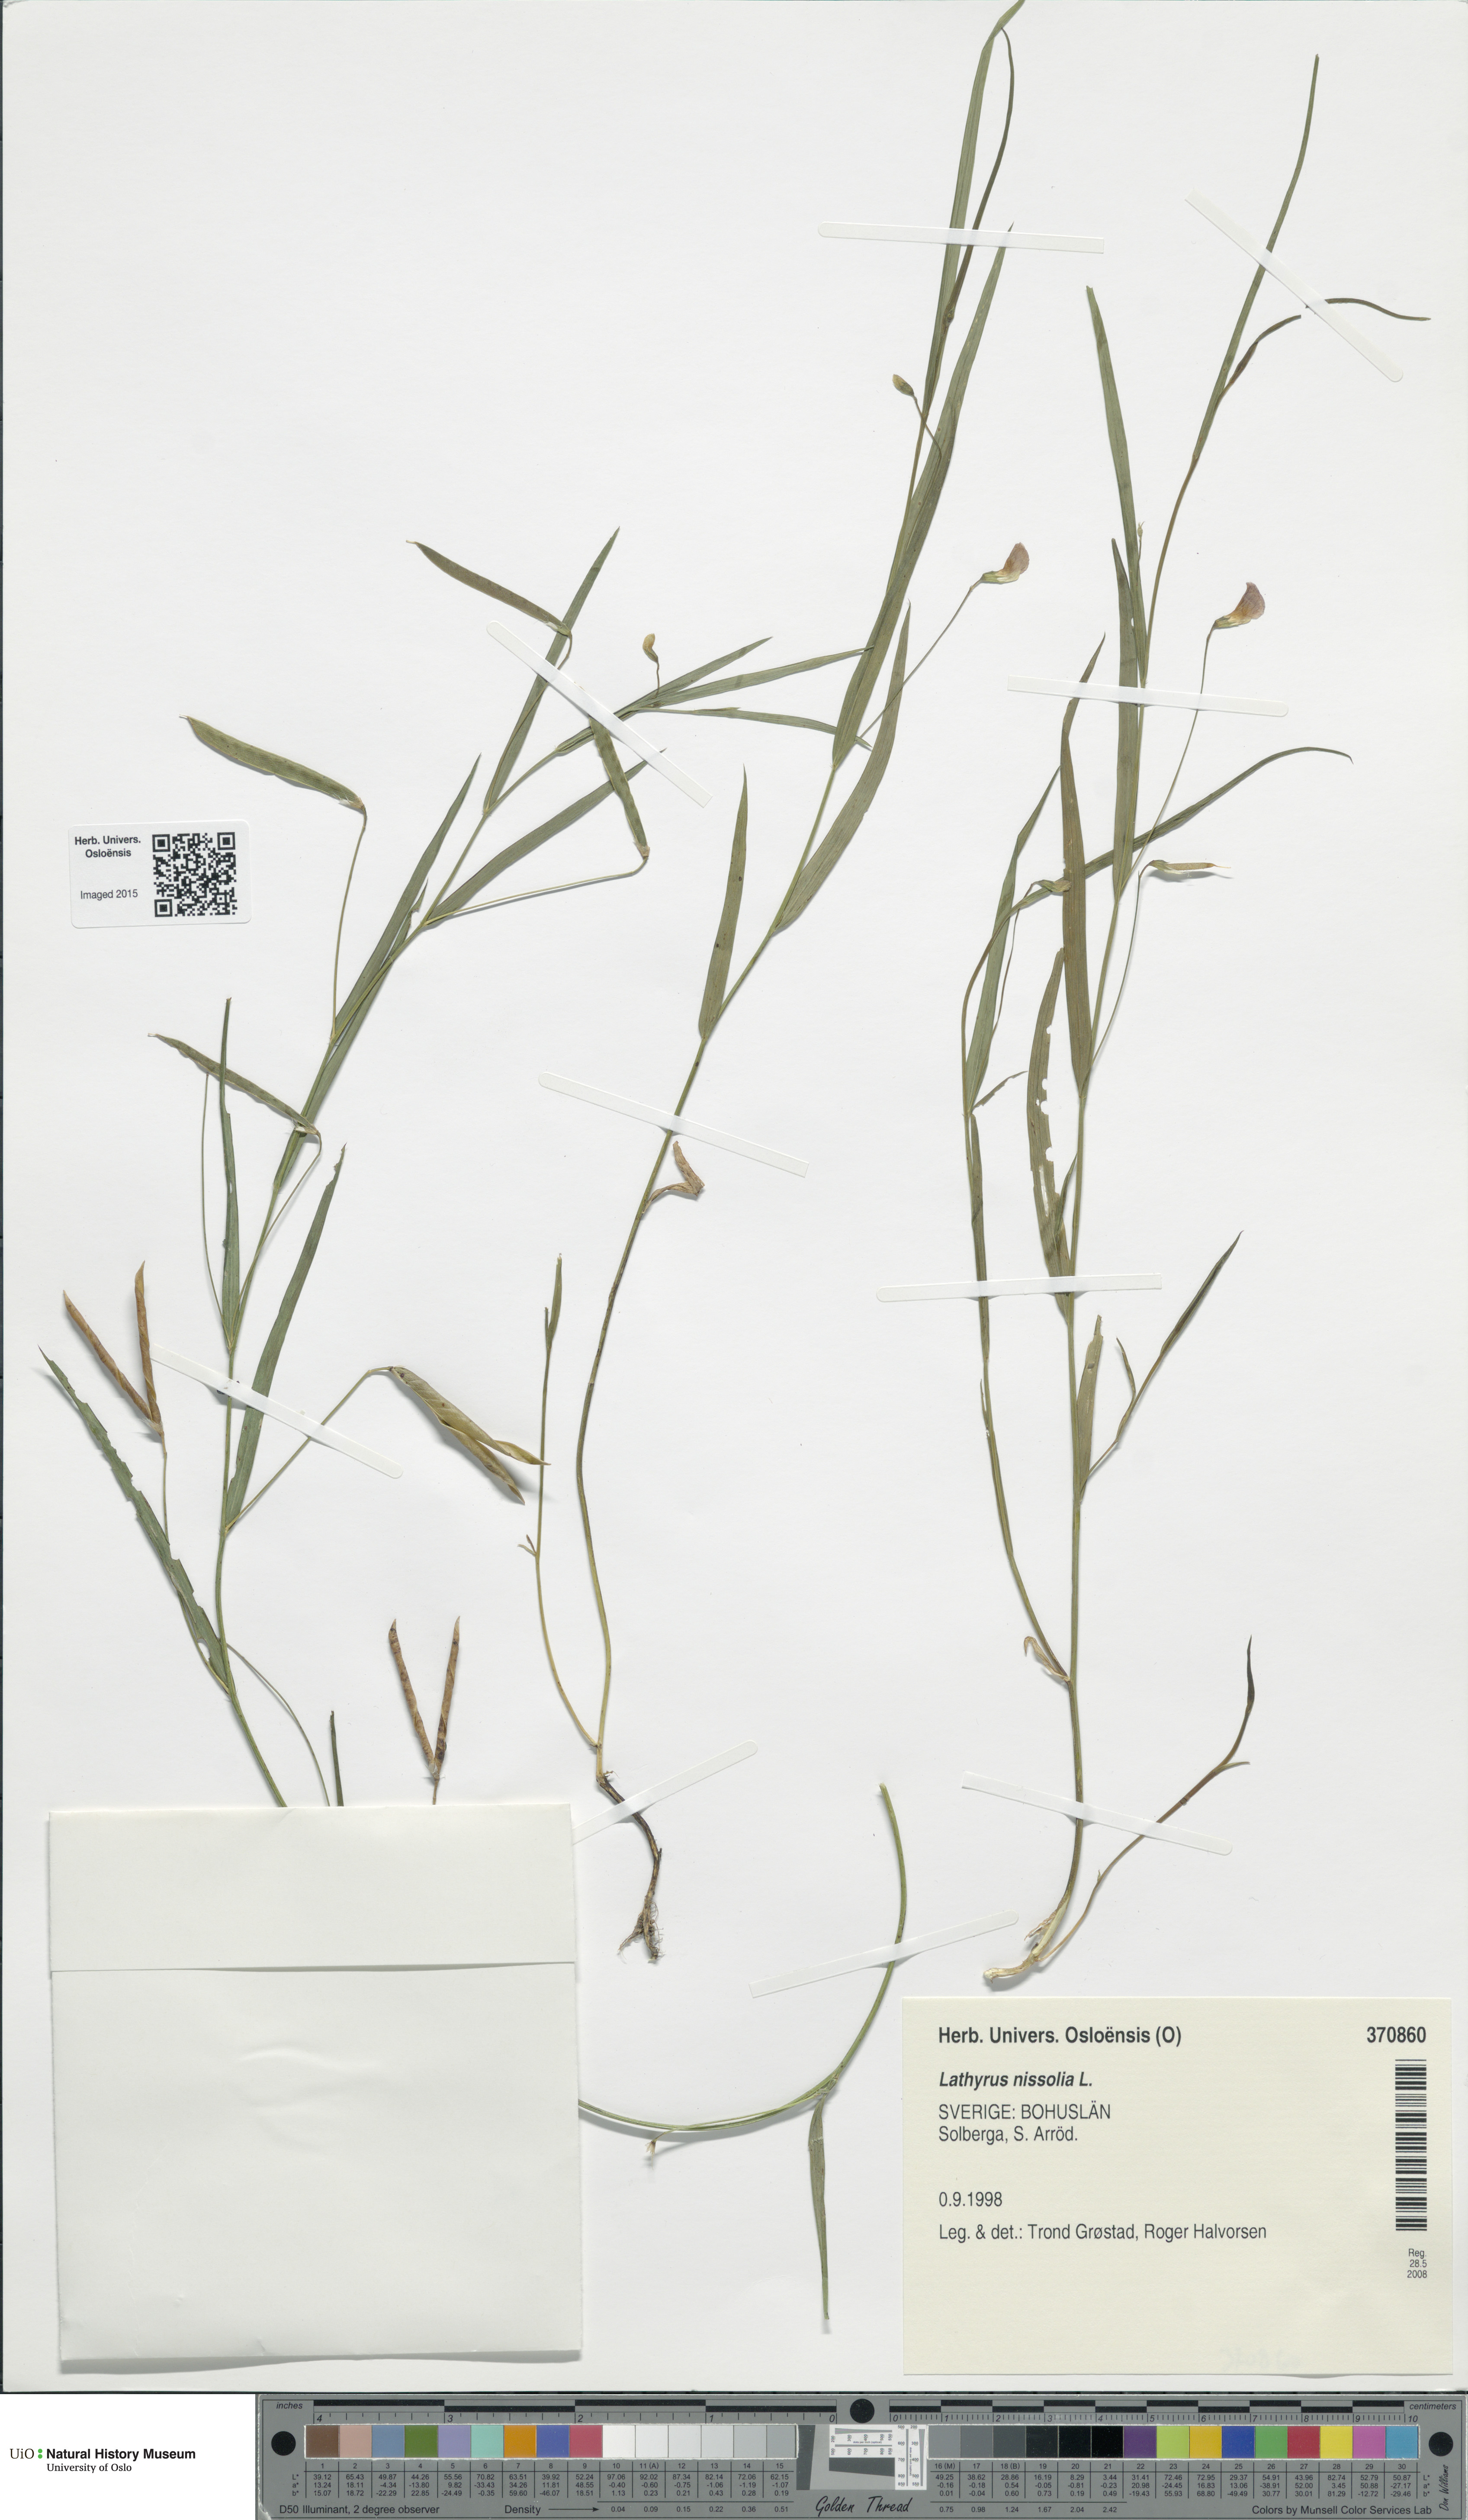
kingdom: Plantae
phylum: Tracheophyta
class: Magnoliopsida
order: Fabales
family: Fabaceae
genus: Lathyrus
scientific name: Lathyrus nissolia
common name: Grass vetchling
